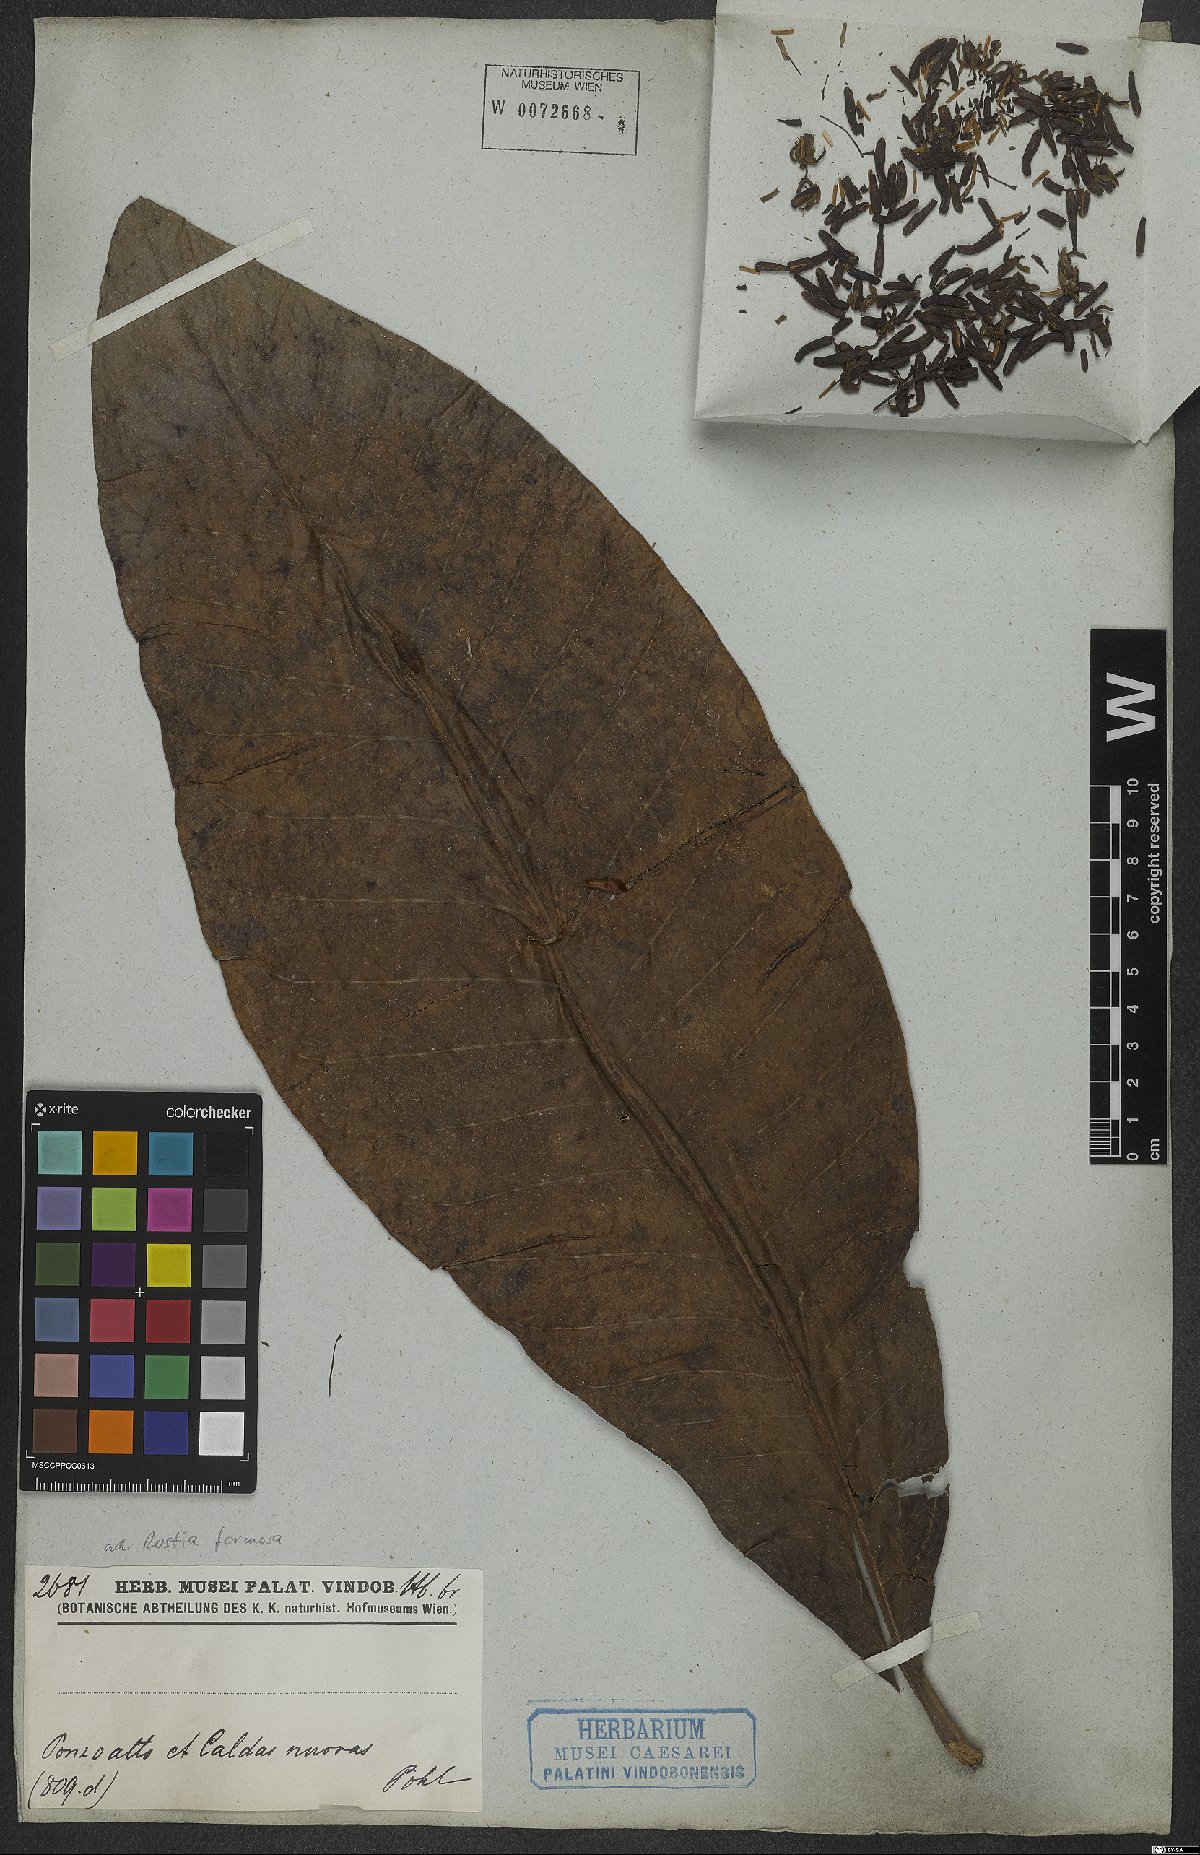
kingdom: Plantae
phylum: Tracheophyta
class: Magnoliopsida
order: Gentianales
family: Rubiaceae
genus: Rustia
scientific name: Rustia formosa
